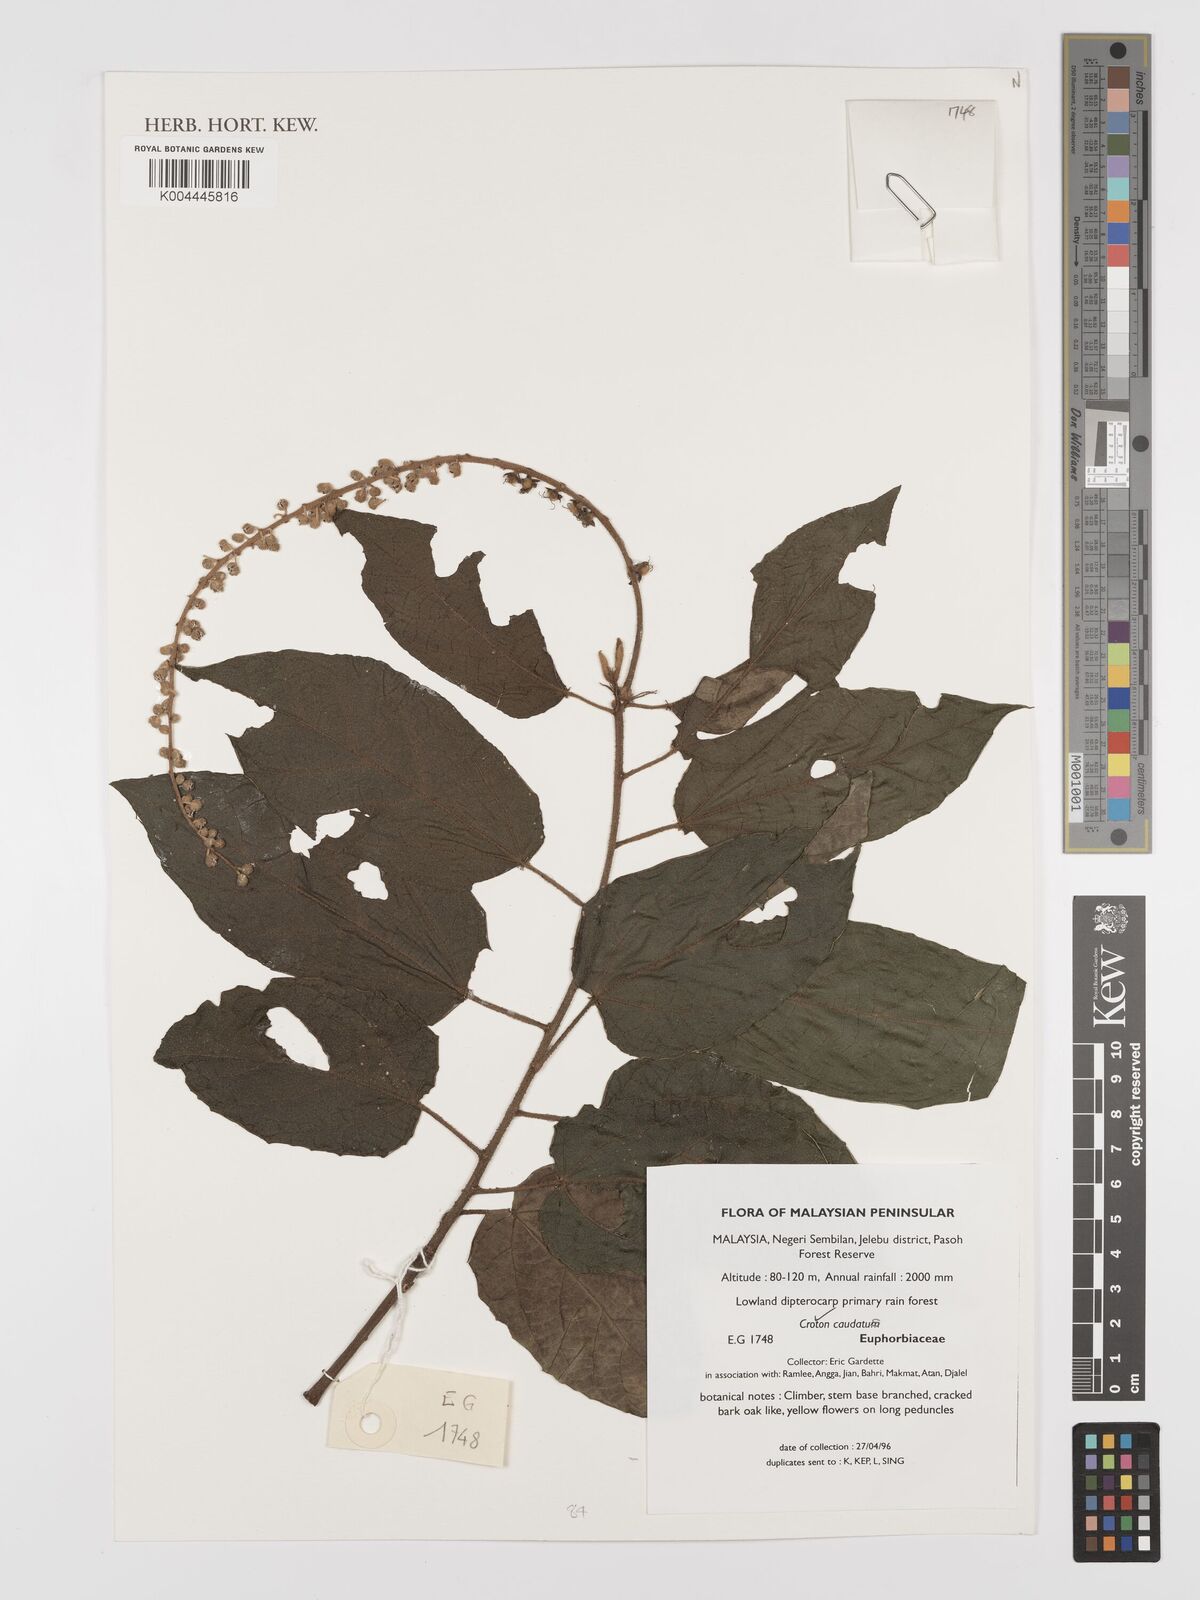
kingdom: Plantae
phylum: Tracheophyta
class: Magnoliopsida
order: Malpighiales
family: Euphorbiaceae
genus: Croton
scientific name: Croton caudatus
